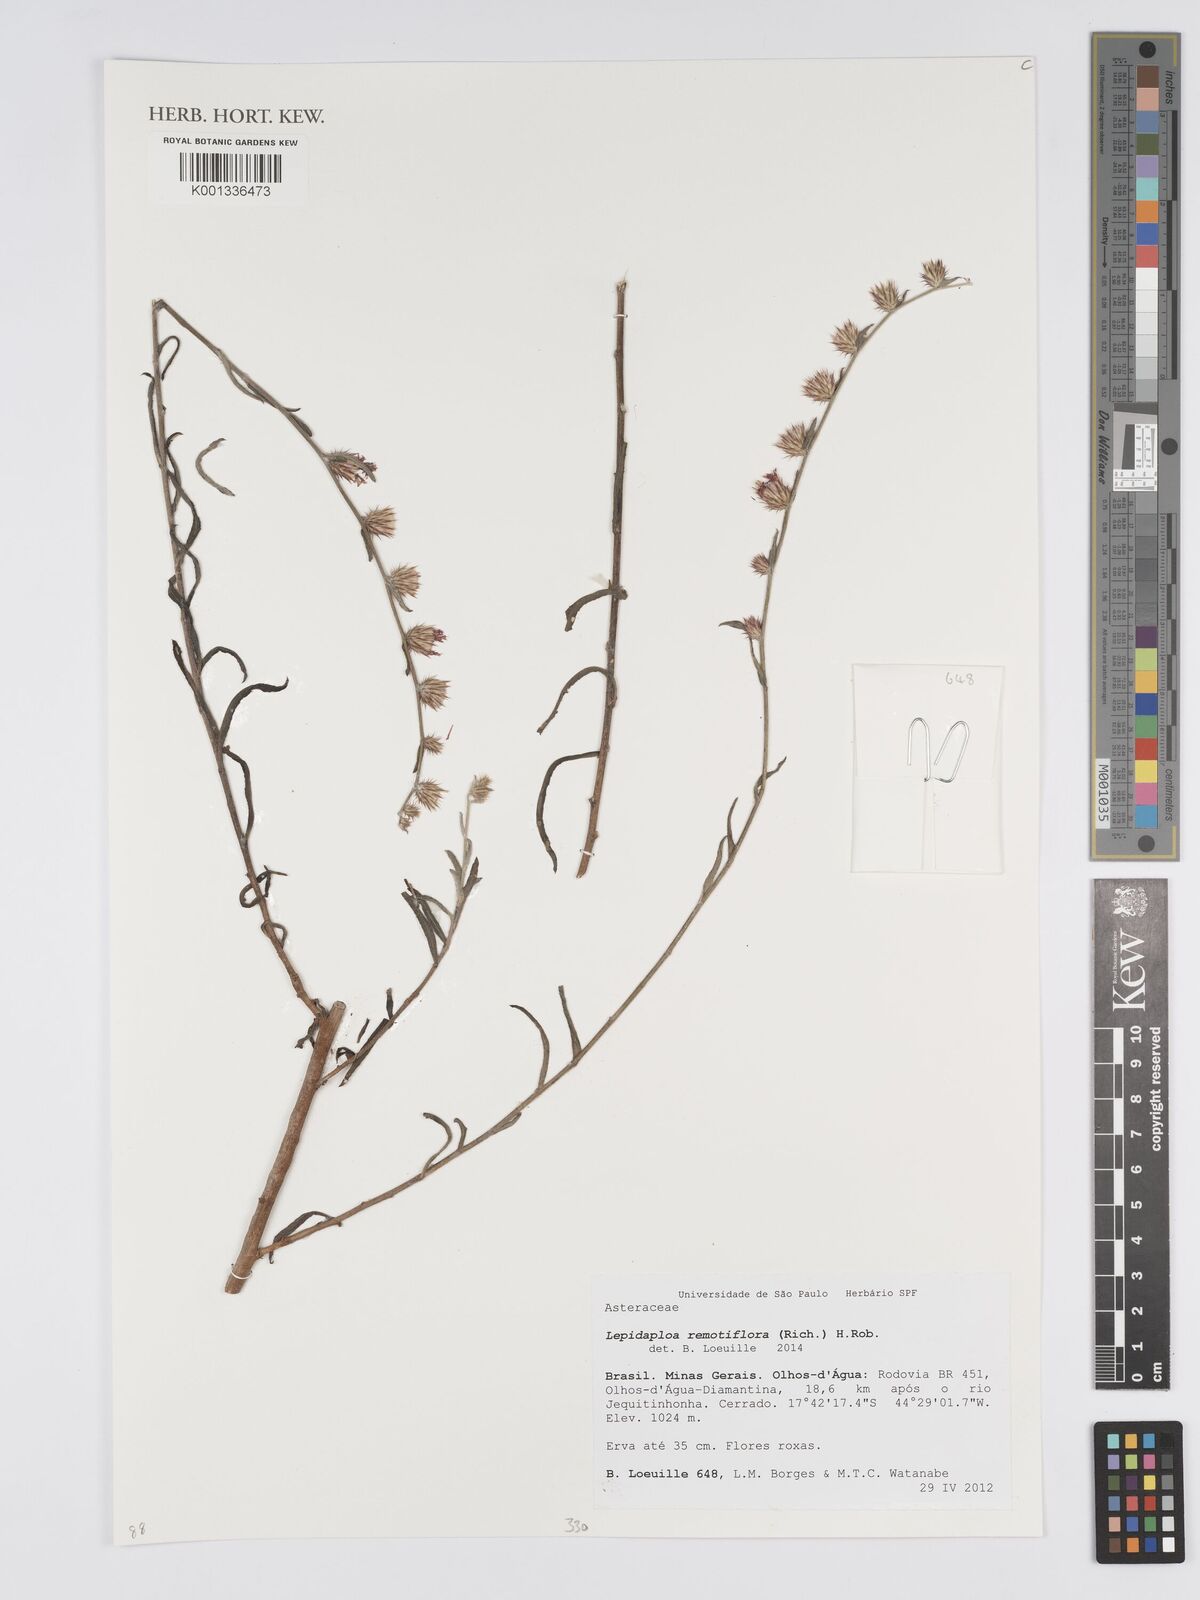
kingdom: Plantae
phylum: Tracheophyta
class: Magnoliopsida
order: Asterales
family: Asteraceae
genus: Lepidaploa
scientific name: Lepidaploa remotiflora
